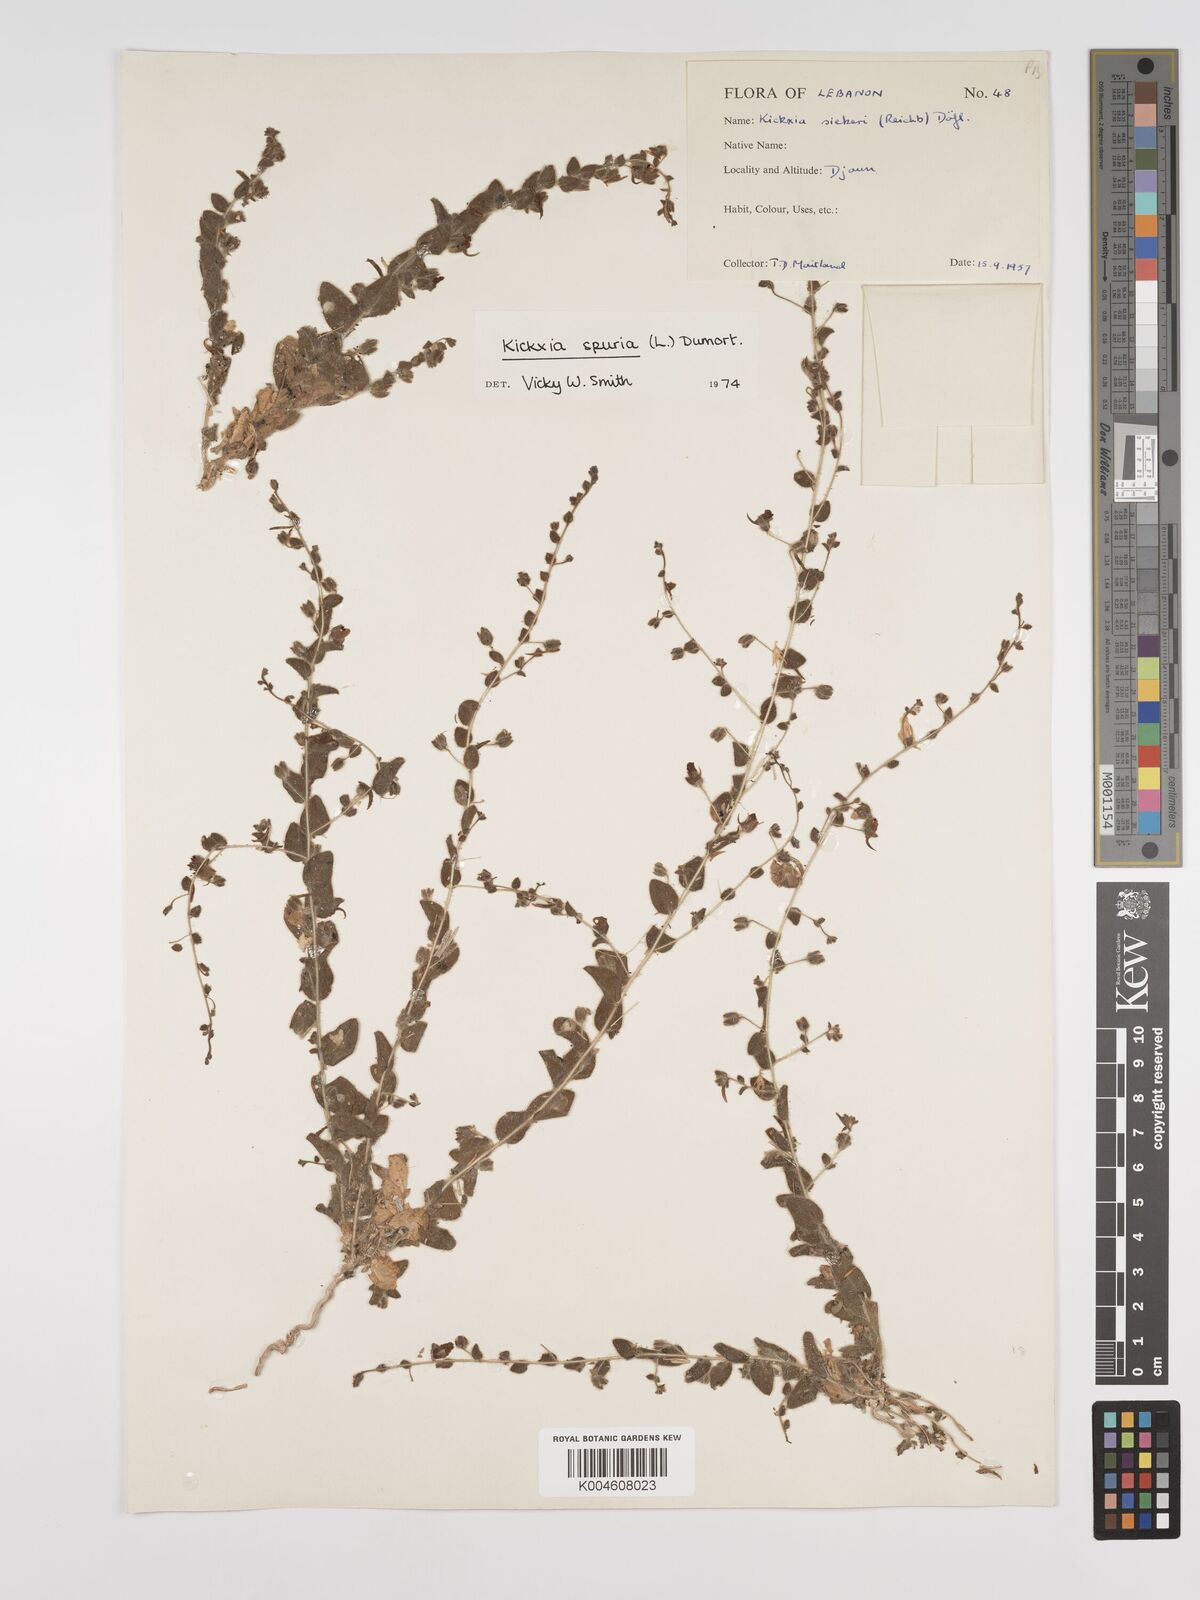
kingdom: Plantae
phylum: Tracheophyta
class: Magnoliopsida
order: Lamiales
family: Plantaginaceae
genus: Kickxia
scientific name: Kickxia spuria
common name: Round-leaved fluellen
